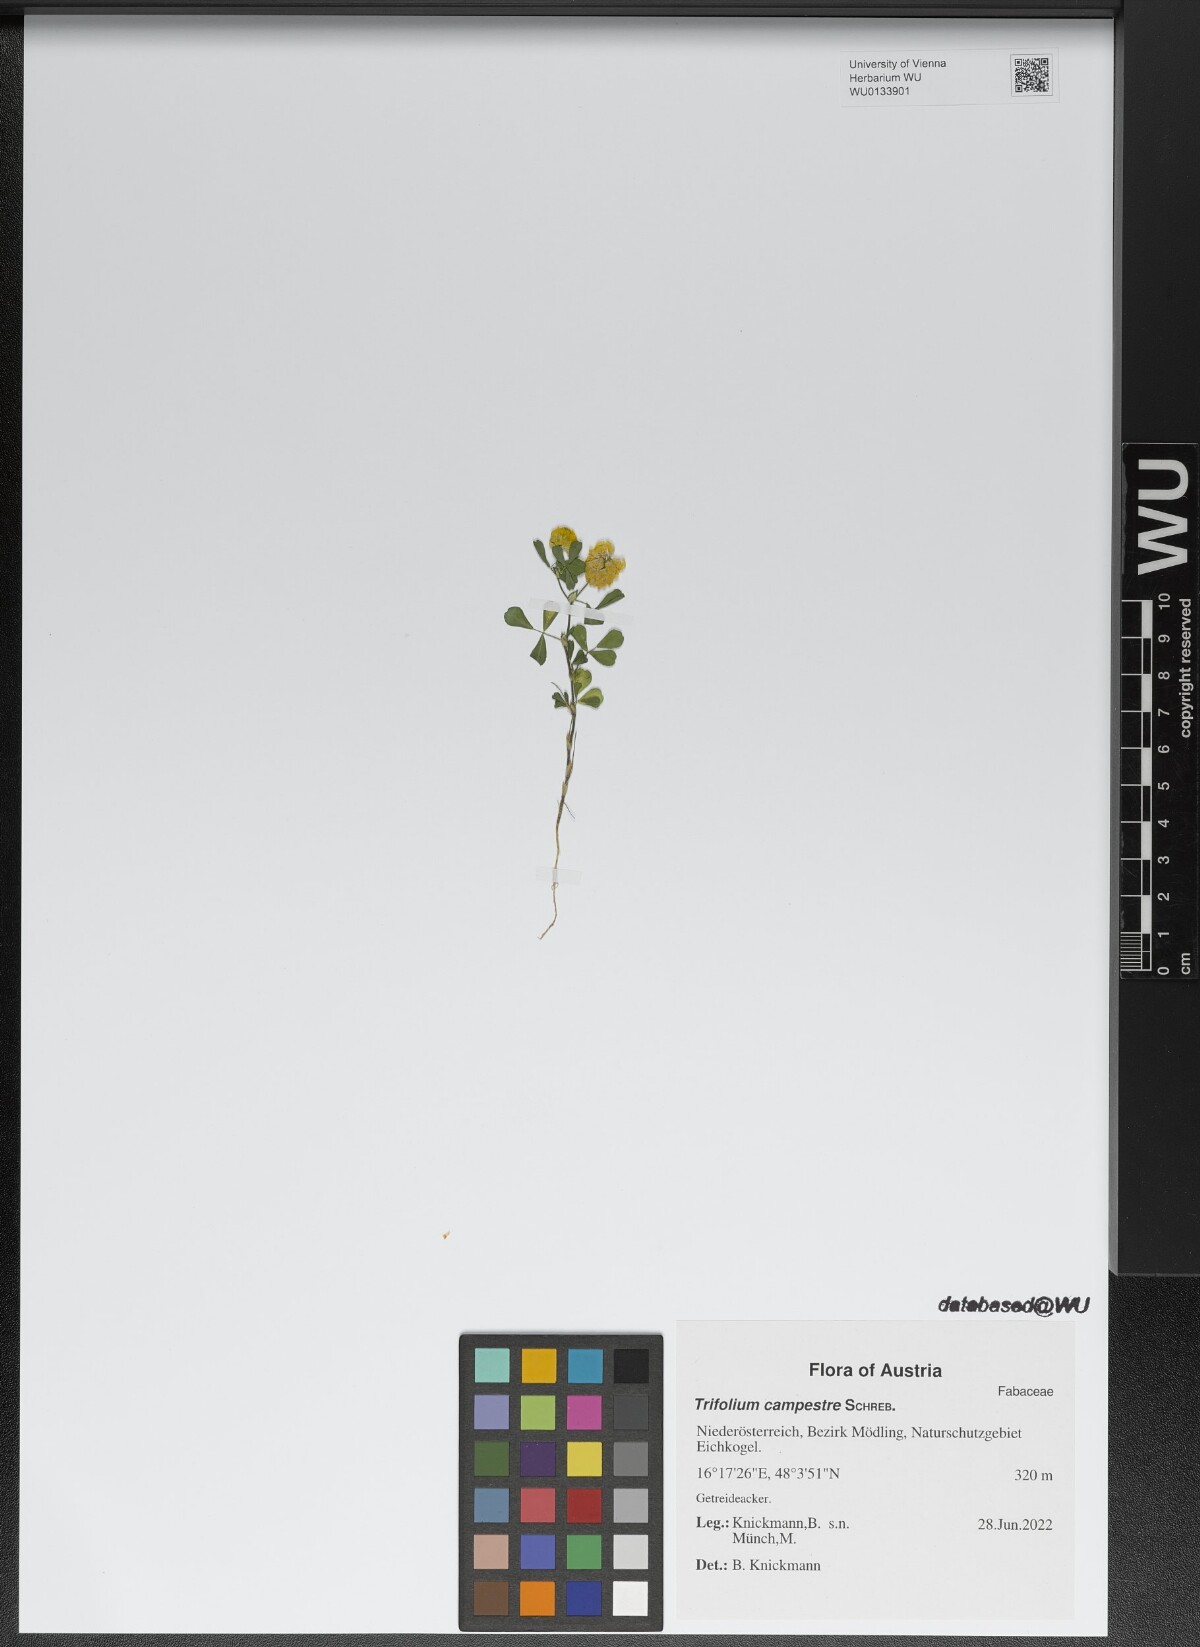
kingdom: Plantae
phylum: Tracheophyta
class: Magnoliopsida
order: Fabales
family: Fabaceae
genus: Trifolium
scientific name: Trifolium campestre
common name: Field clover
